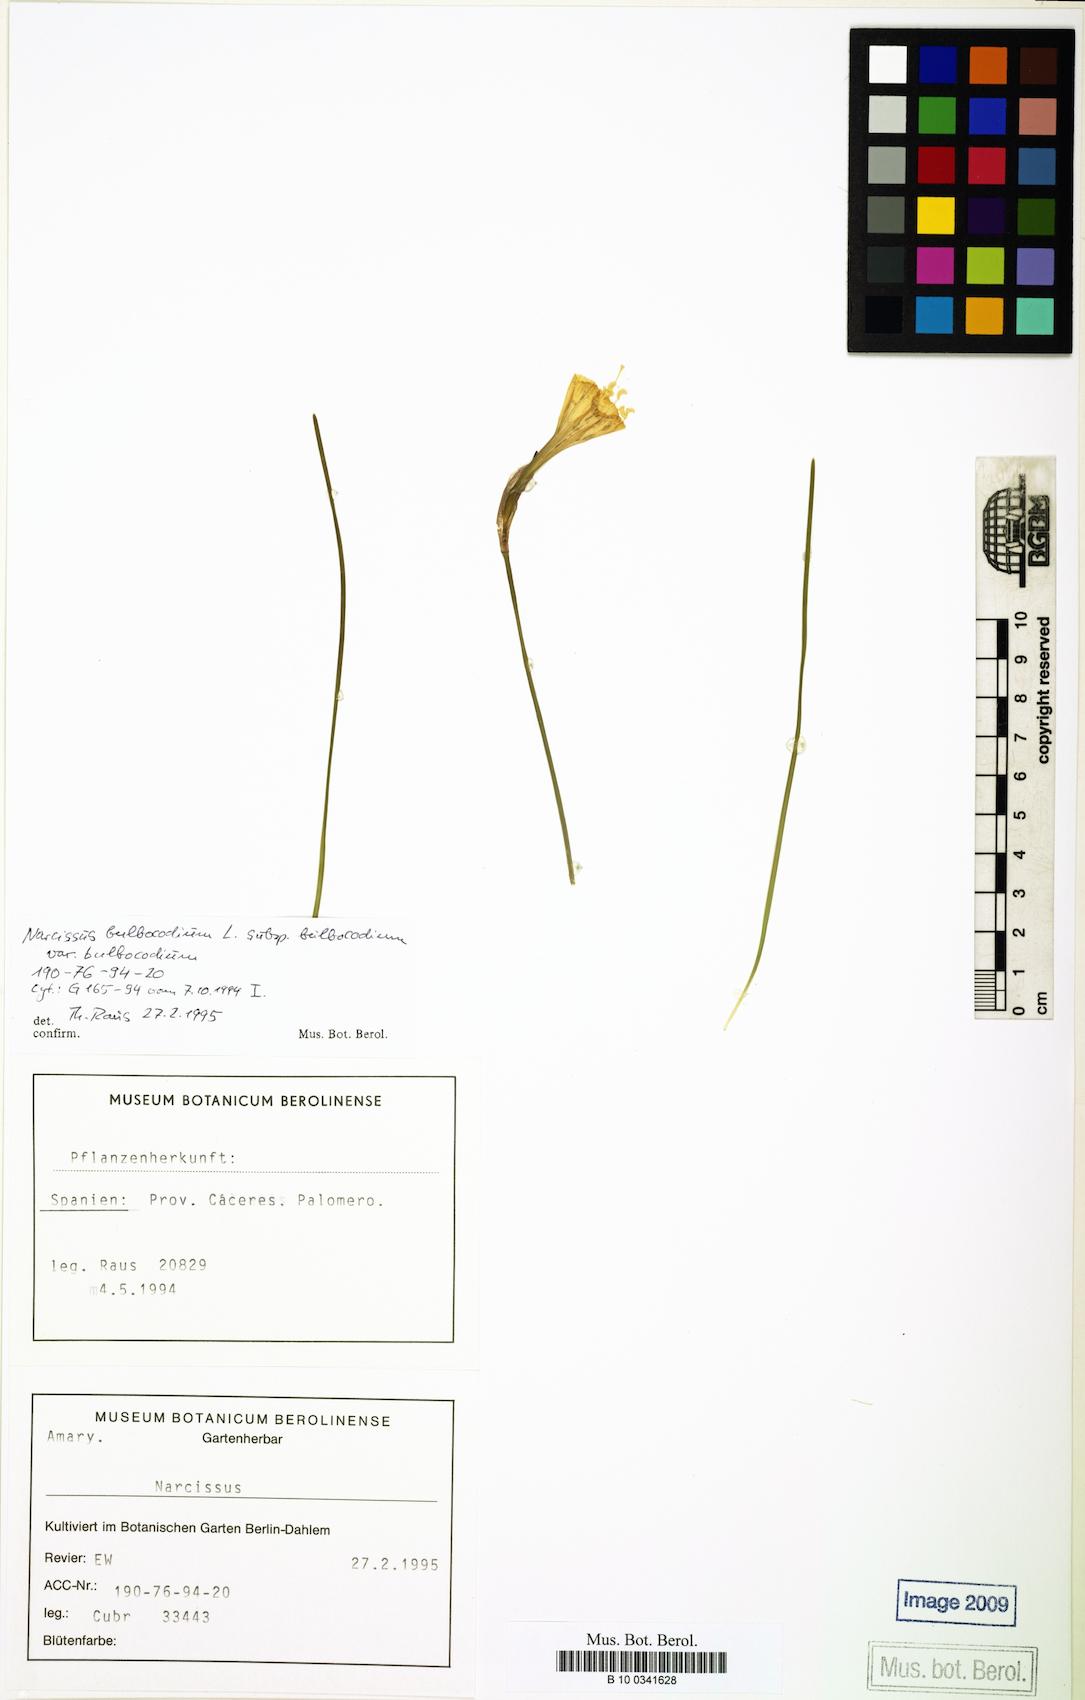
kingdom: Plantae
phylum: Tracheophyta
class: Liliopsida
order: Asparagales
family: Amaryllidaceae
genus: Narcissus
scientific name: Narcissus bulbocodium
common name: Hoop-petticoat daffodil
